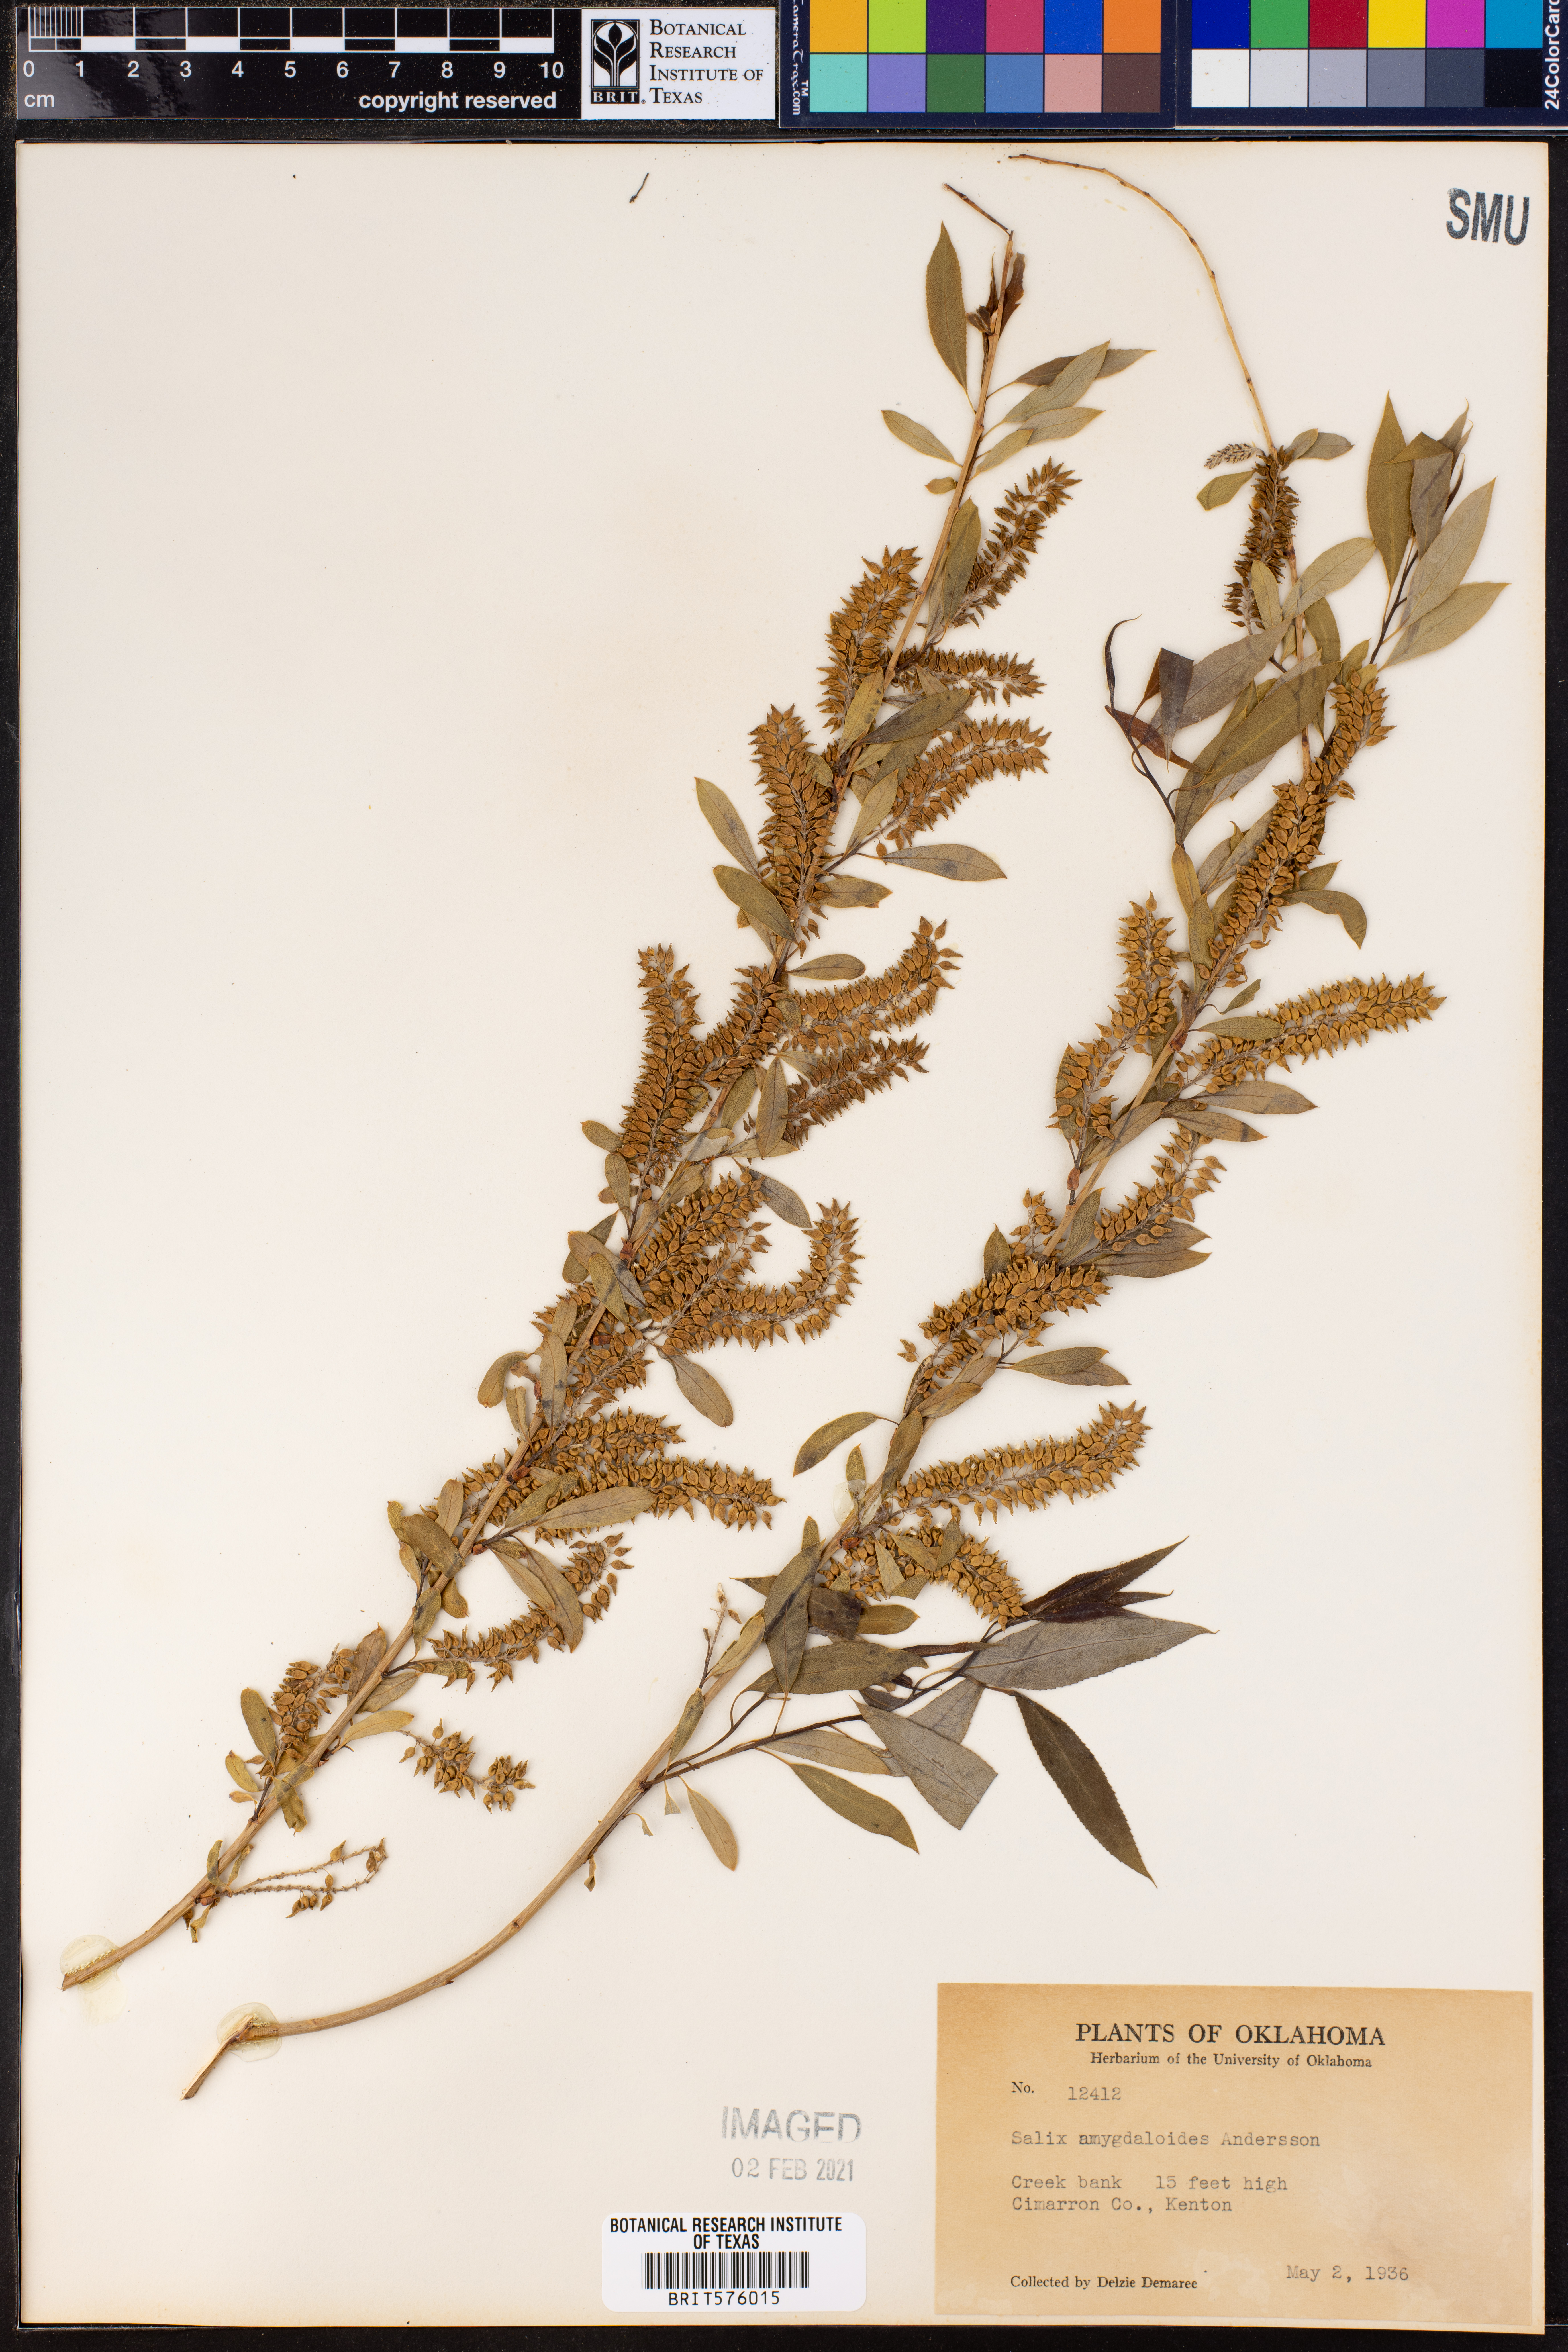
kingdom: Plantae
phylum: Tracheophyta
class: Magnoliopsida
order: Malpighiales
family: Salicaceae
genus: Salix
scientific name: Salix amygdaloides
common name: Peach leaf willow
